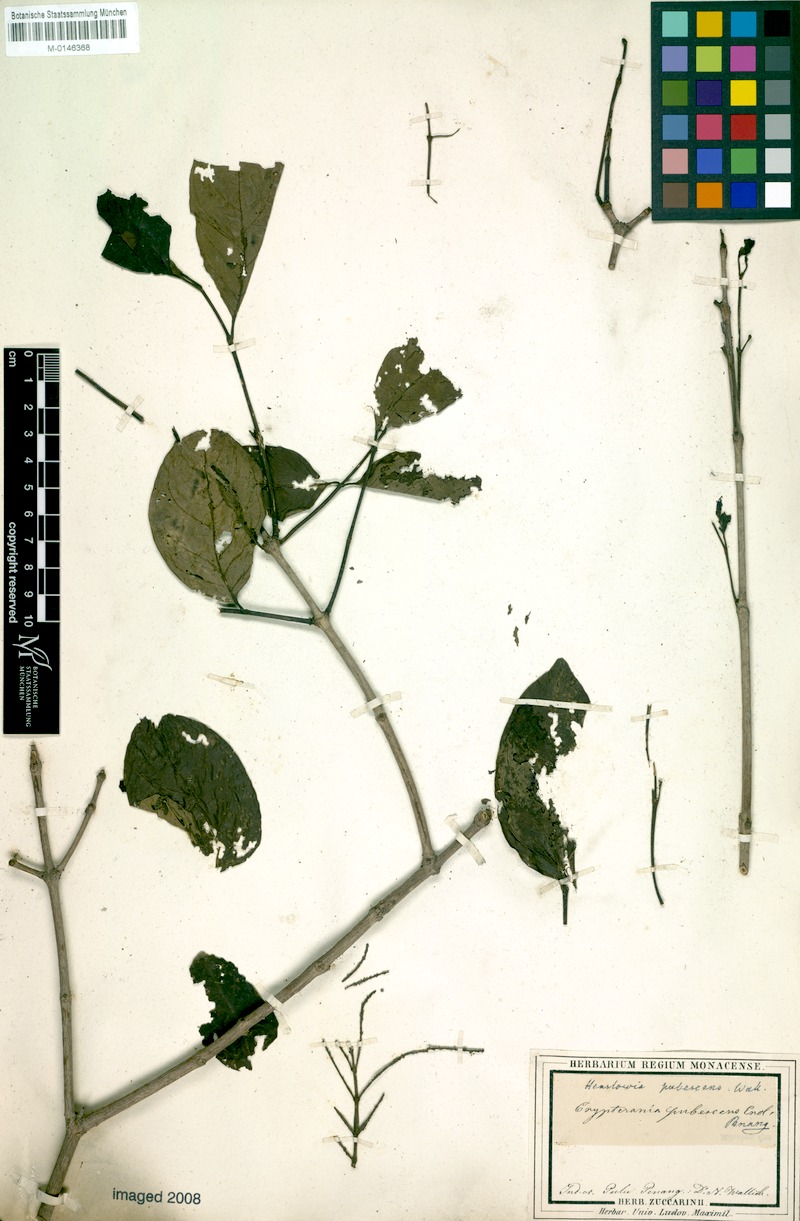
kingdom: Plantae
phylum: Tracheophyta
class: Magnoliopsida
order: Myrtales
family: Crypteroniaceae
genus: Crypteronia
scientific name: Crypteronia paniculata
